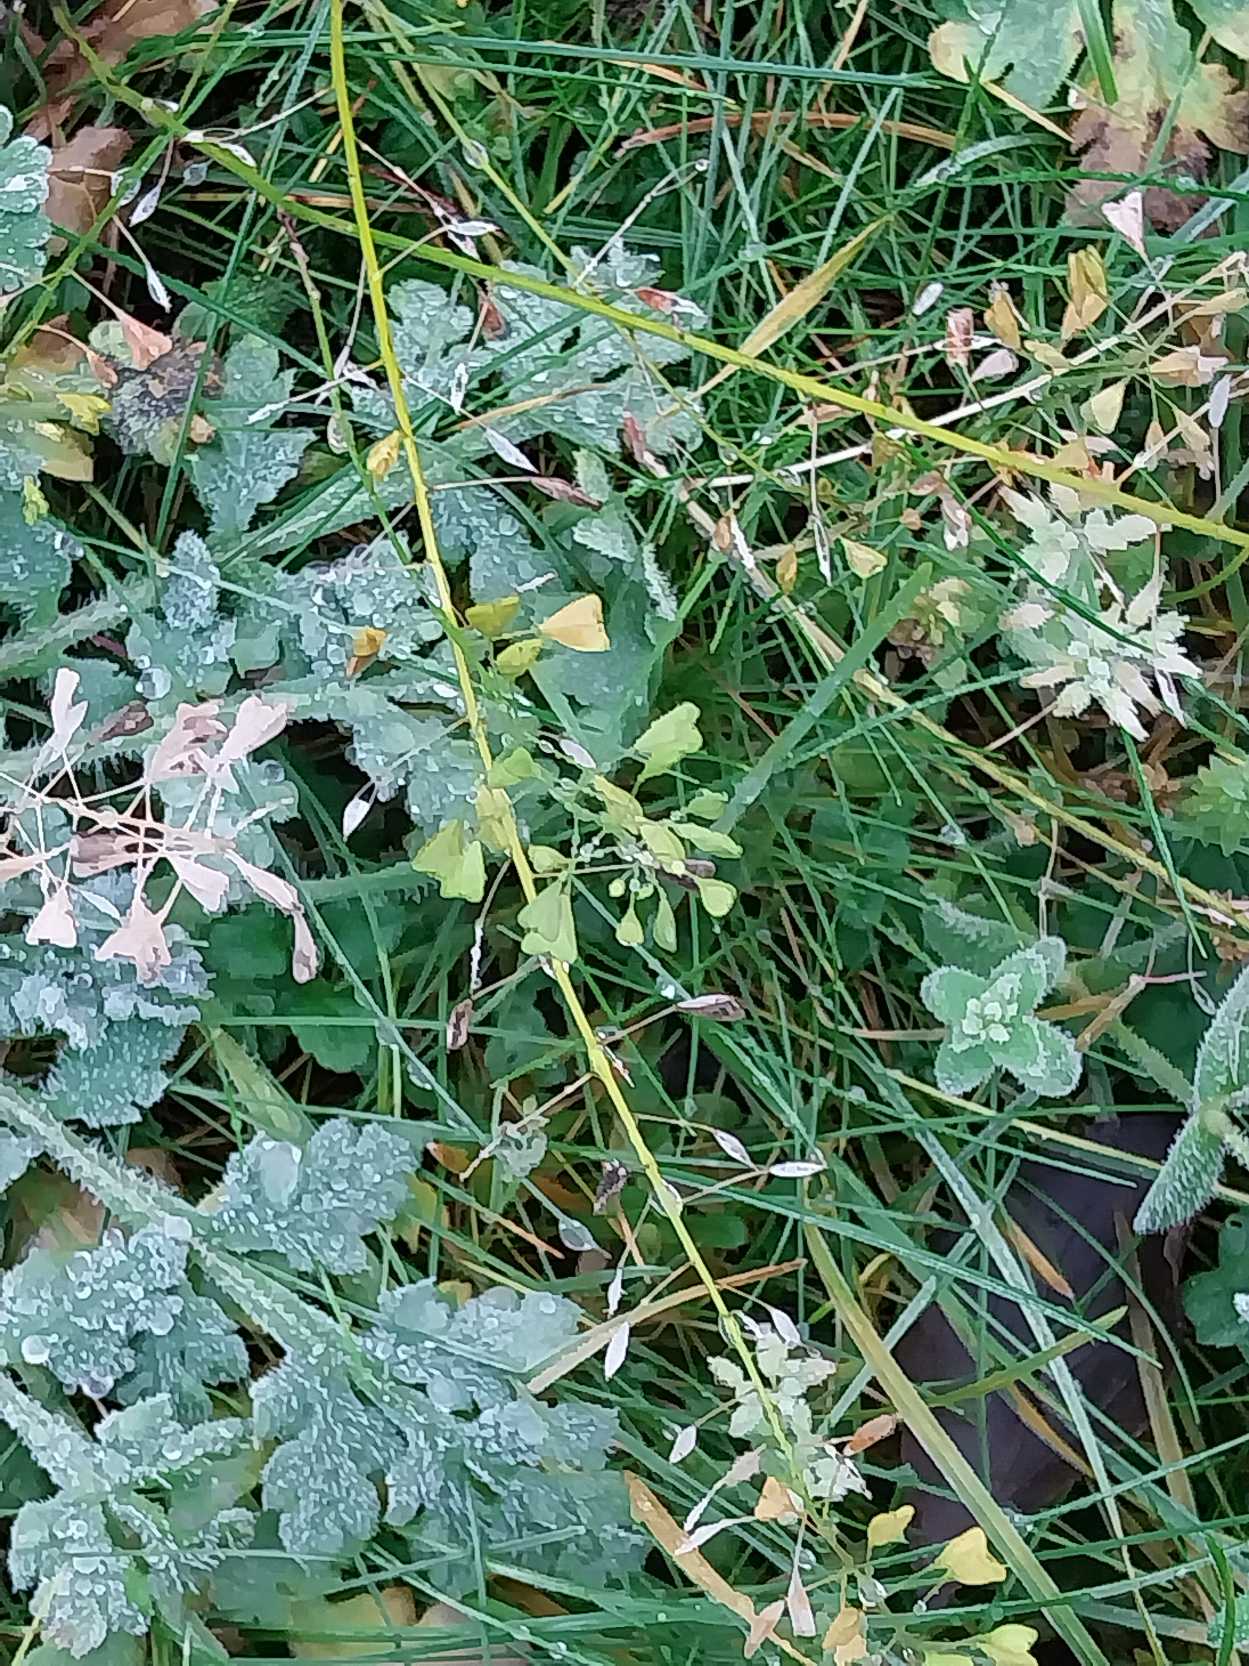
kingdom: Plantae
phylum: Tracheophyta
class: Magnoliopsida
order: Brassicales
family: Brassicaceae
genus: Capsella
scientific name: Capsella bursa-pastoris
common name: Hyrdetaske
